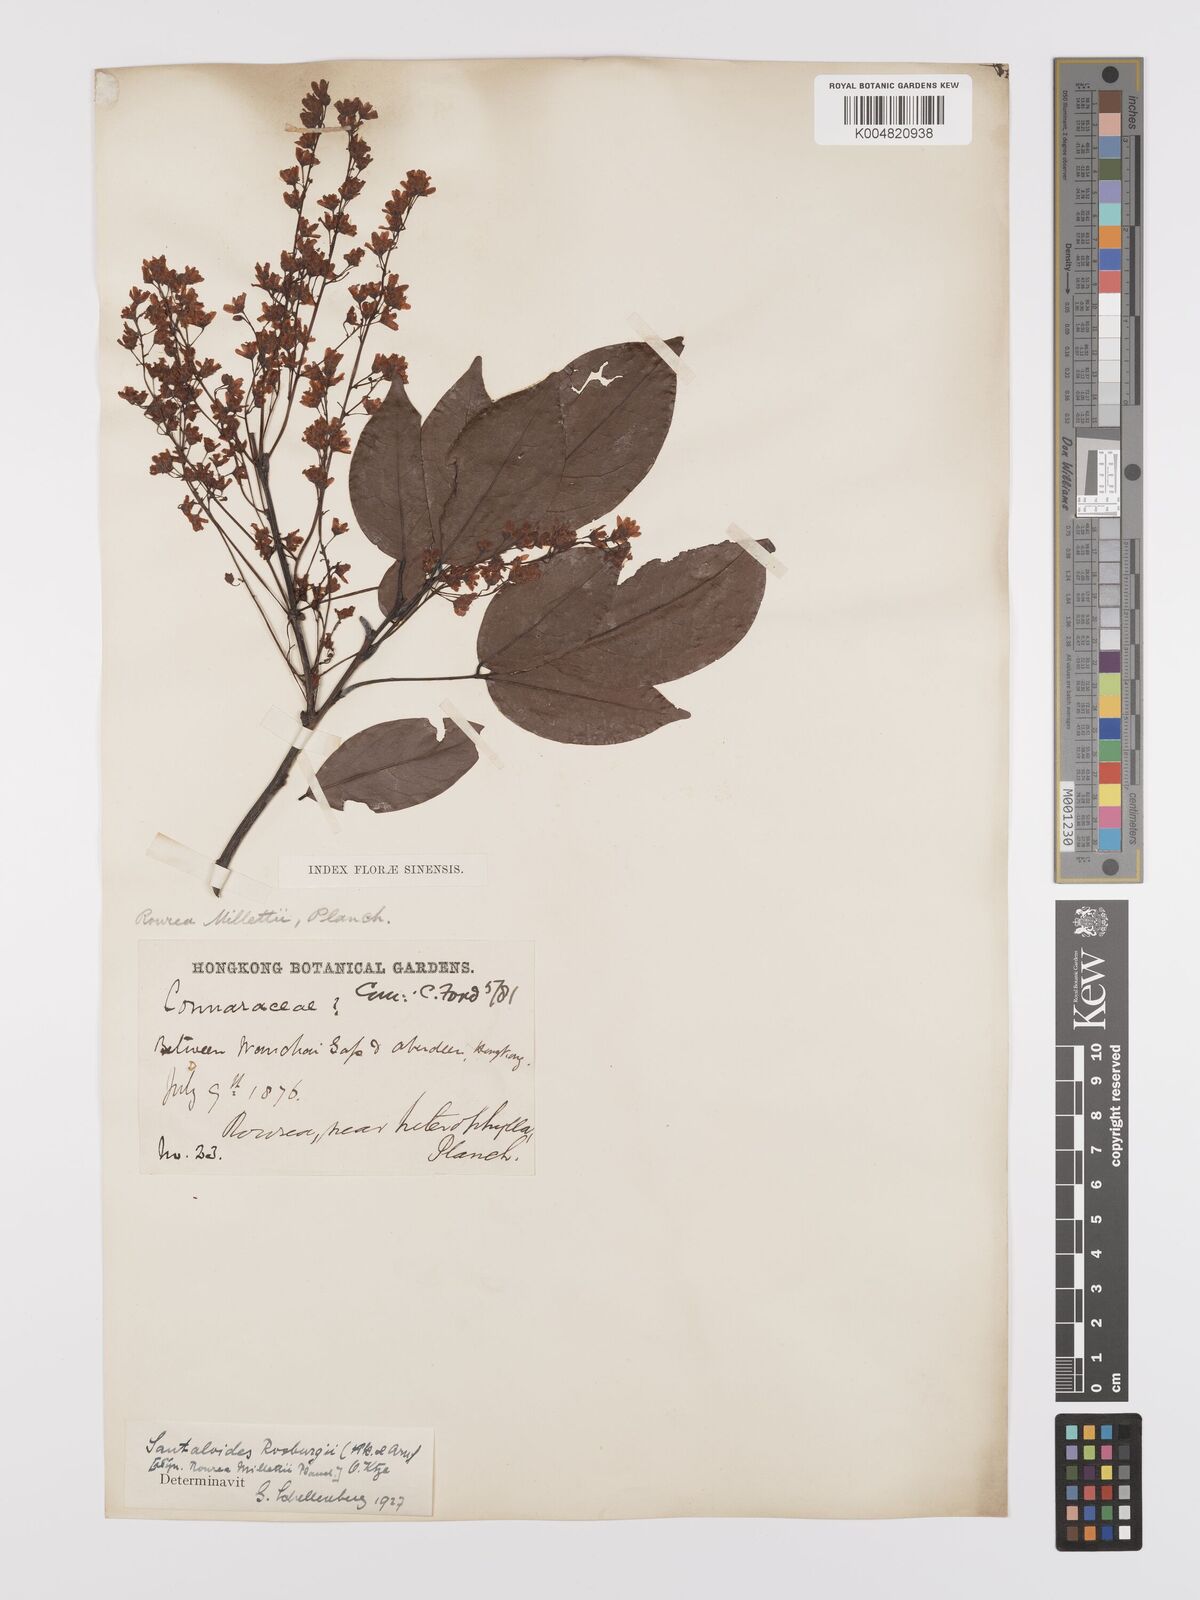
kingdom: Plantae
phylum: Tracheophyta
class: Magnoliopsida
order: Oxalidales
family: Connaraceae
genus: Rourea
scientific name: Rourea
